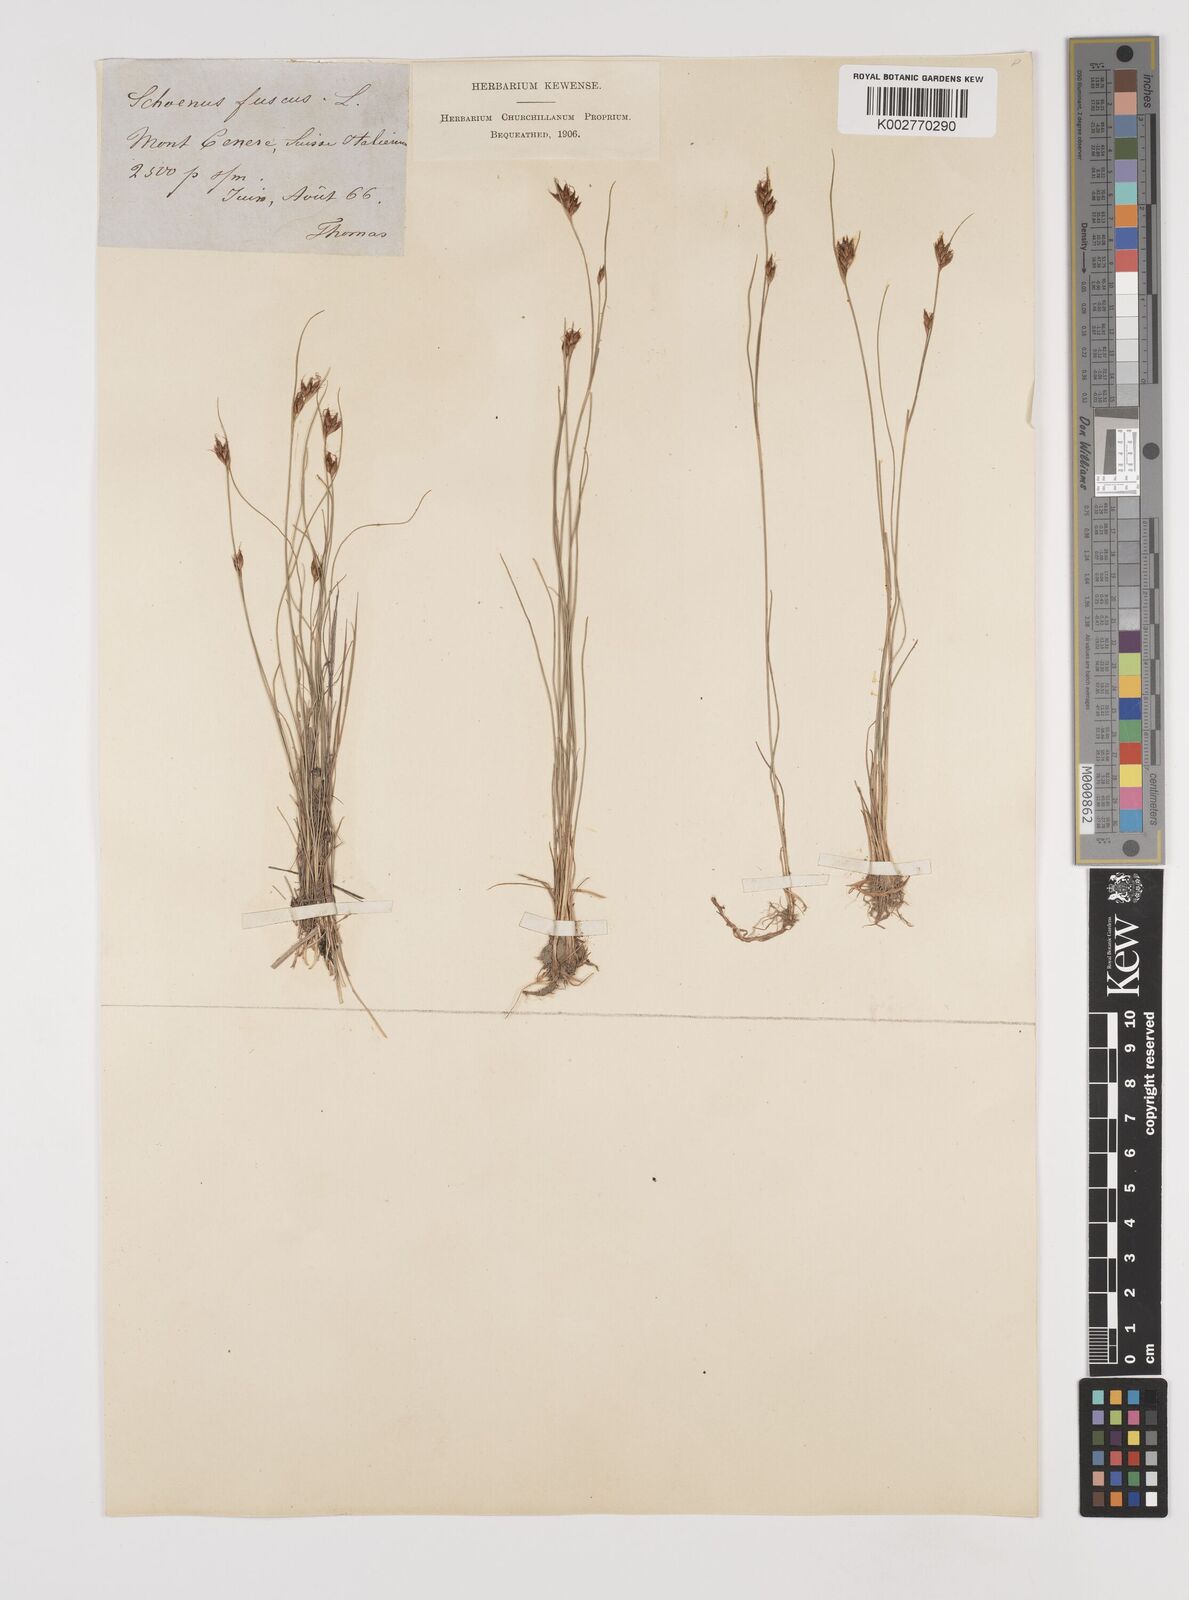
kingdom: Plantae
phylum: Tracheophyta
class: Liliopsida
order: Poales
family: Cyperaceae
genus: Rhynchospora
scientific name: Rhynchospora fusca
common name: Brown beak-sedge
